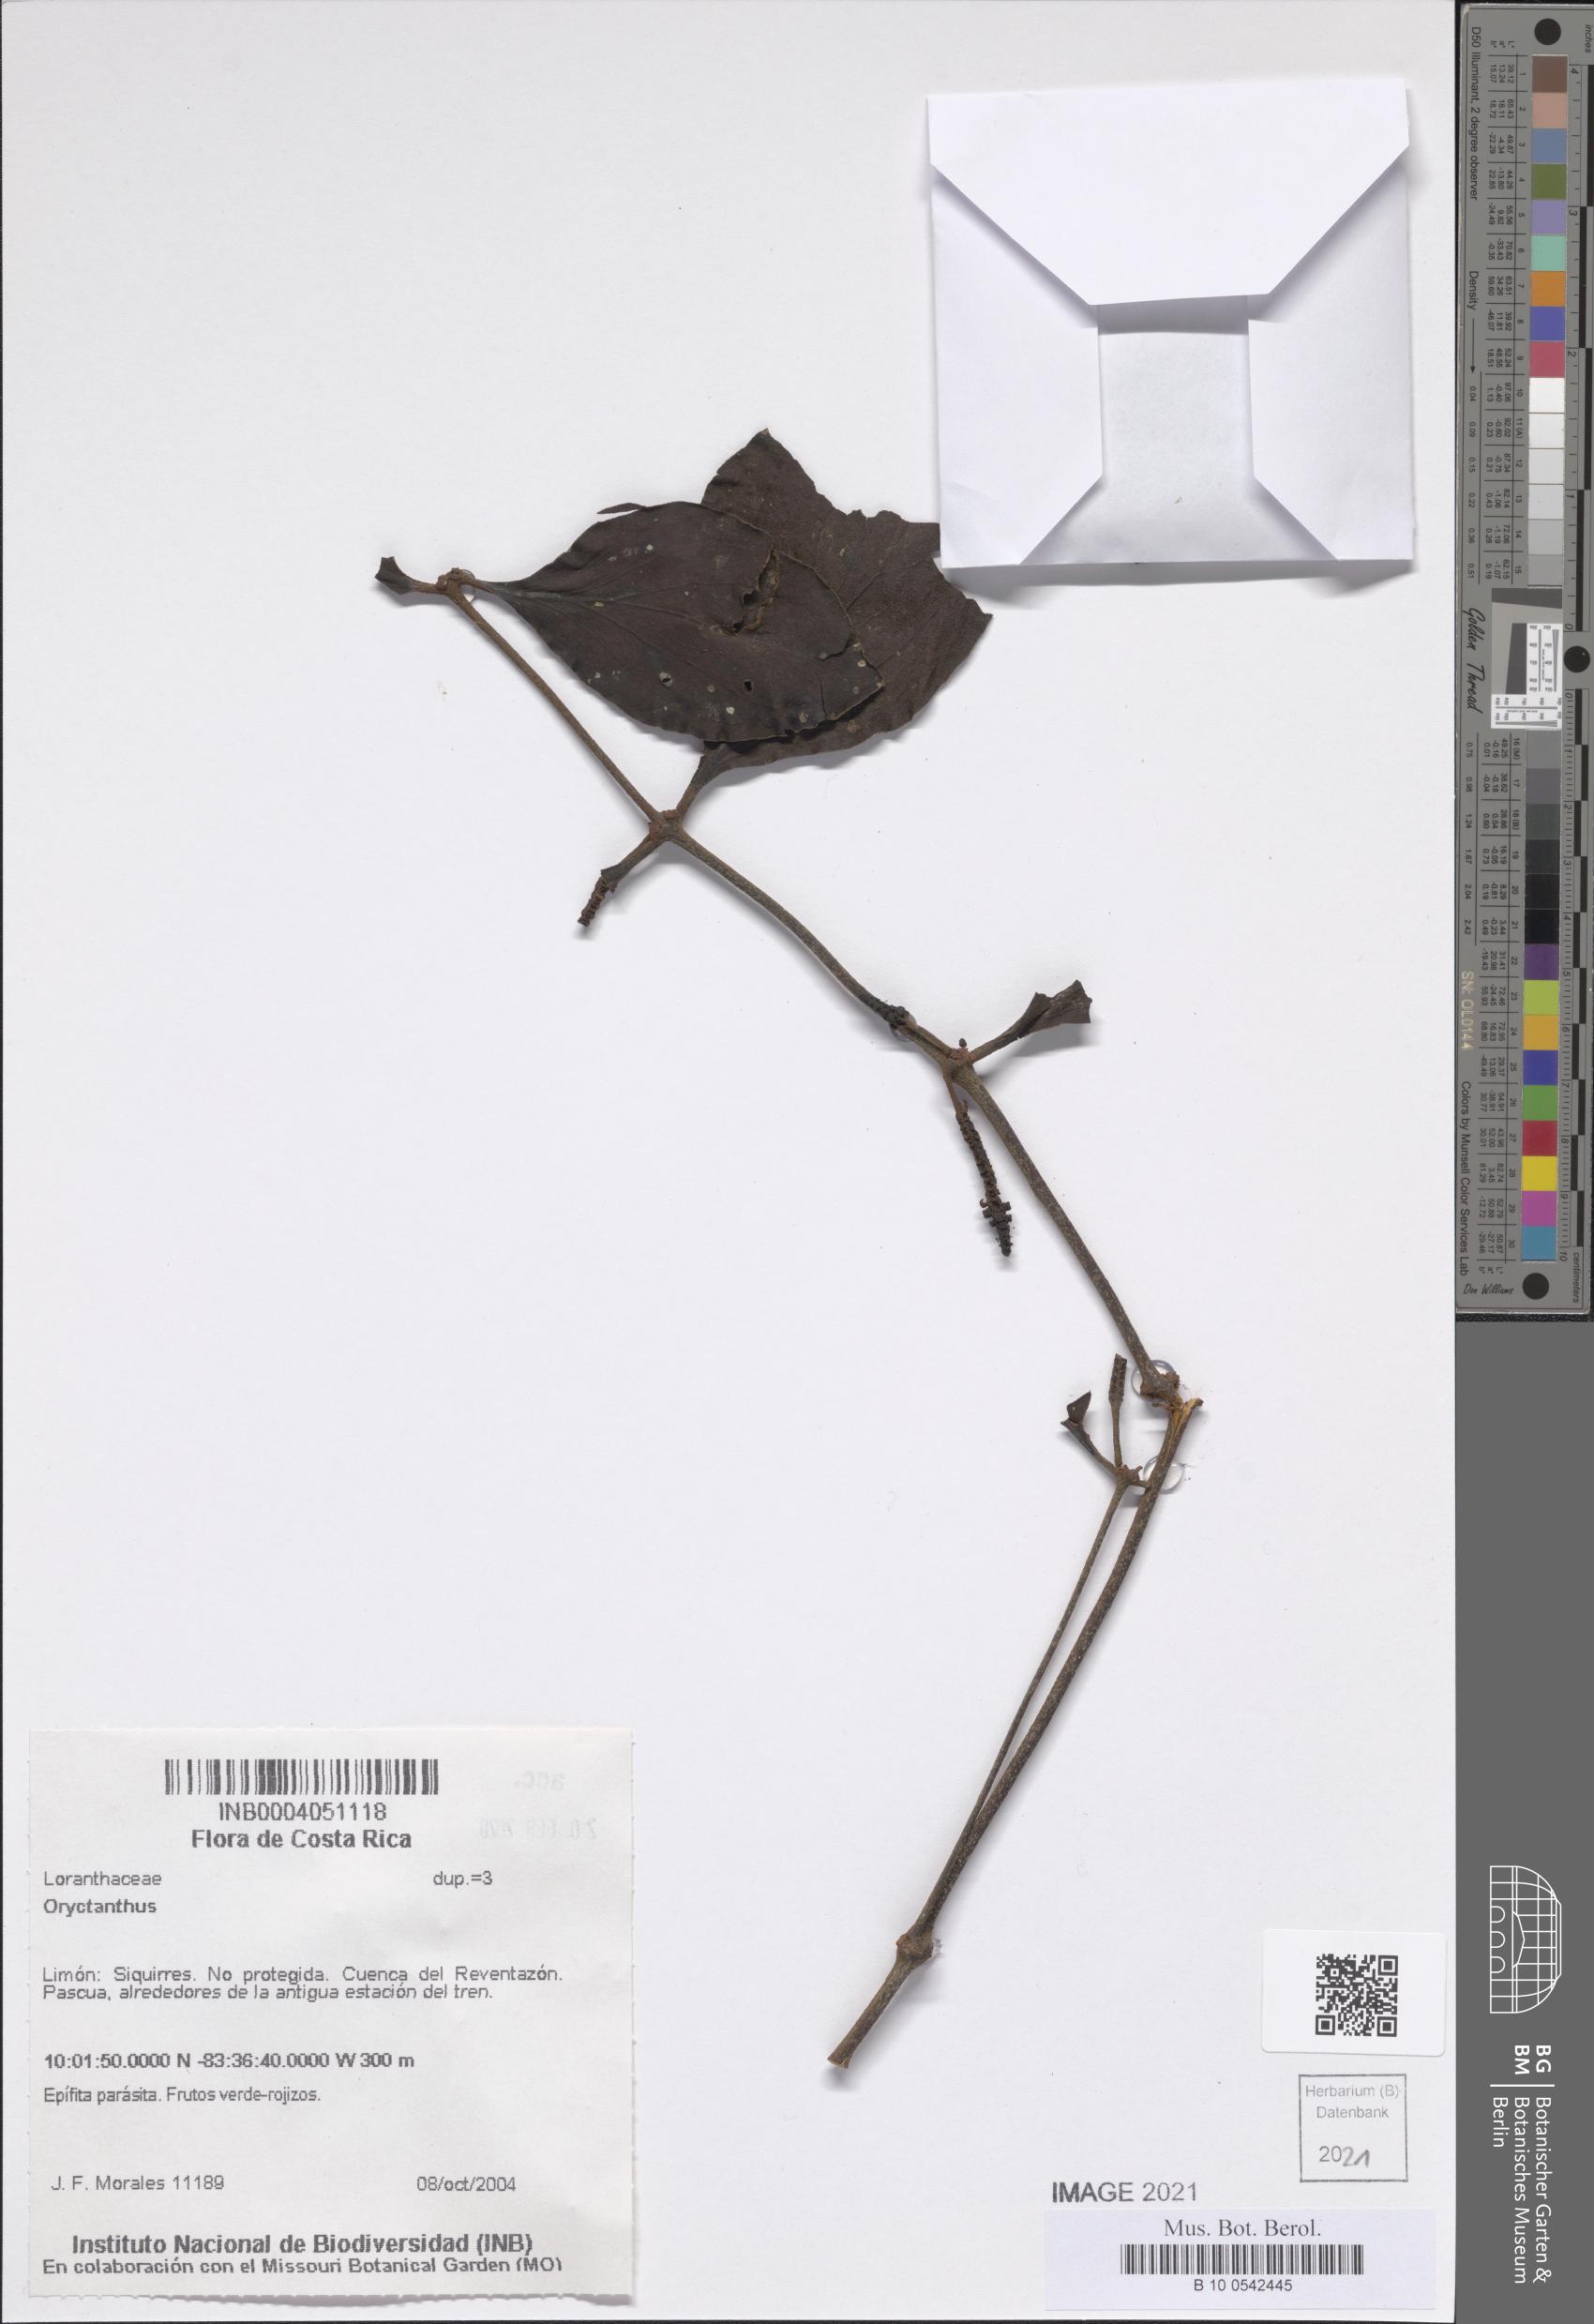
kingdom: Plantae
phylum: Tracheophyta
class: Magnoliopsida
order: Santalales
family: Loranthaceae
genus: Oryctanthus
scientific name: Oryctanthus
